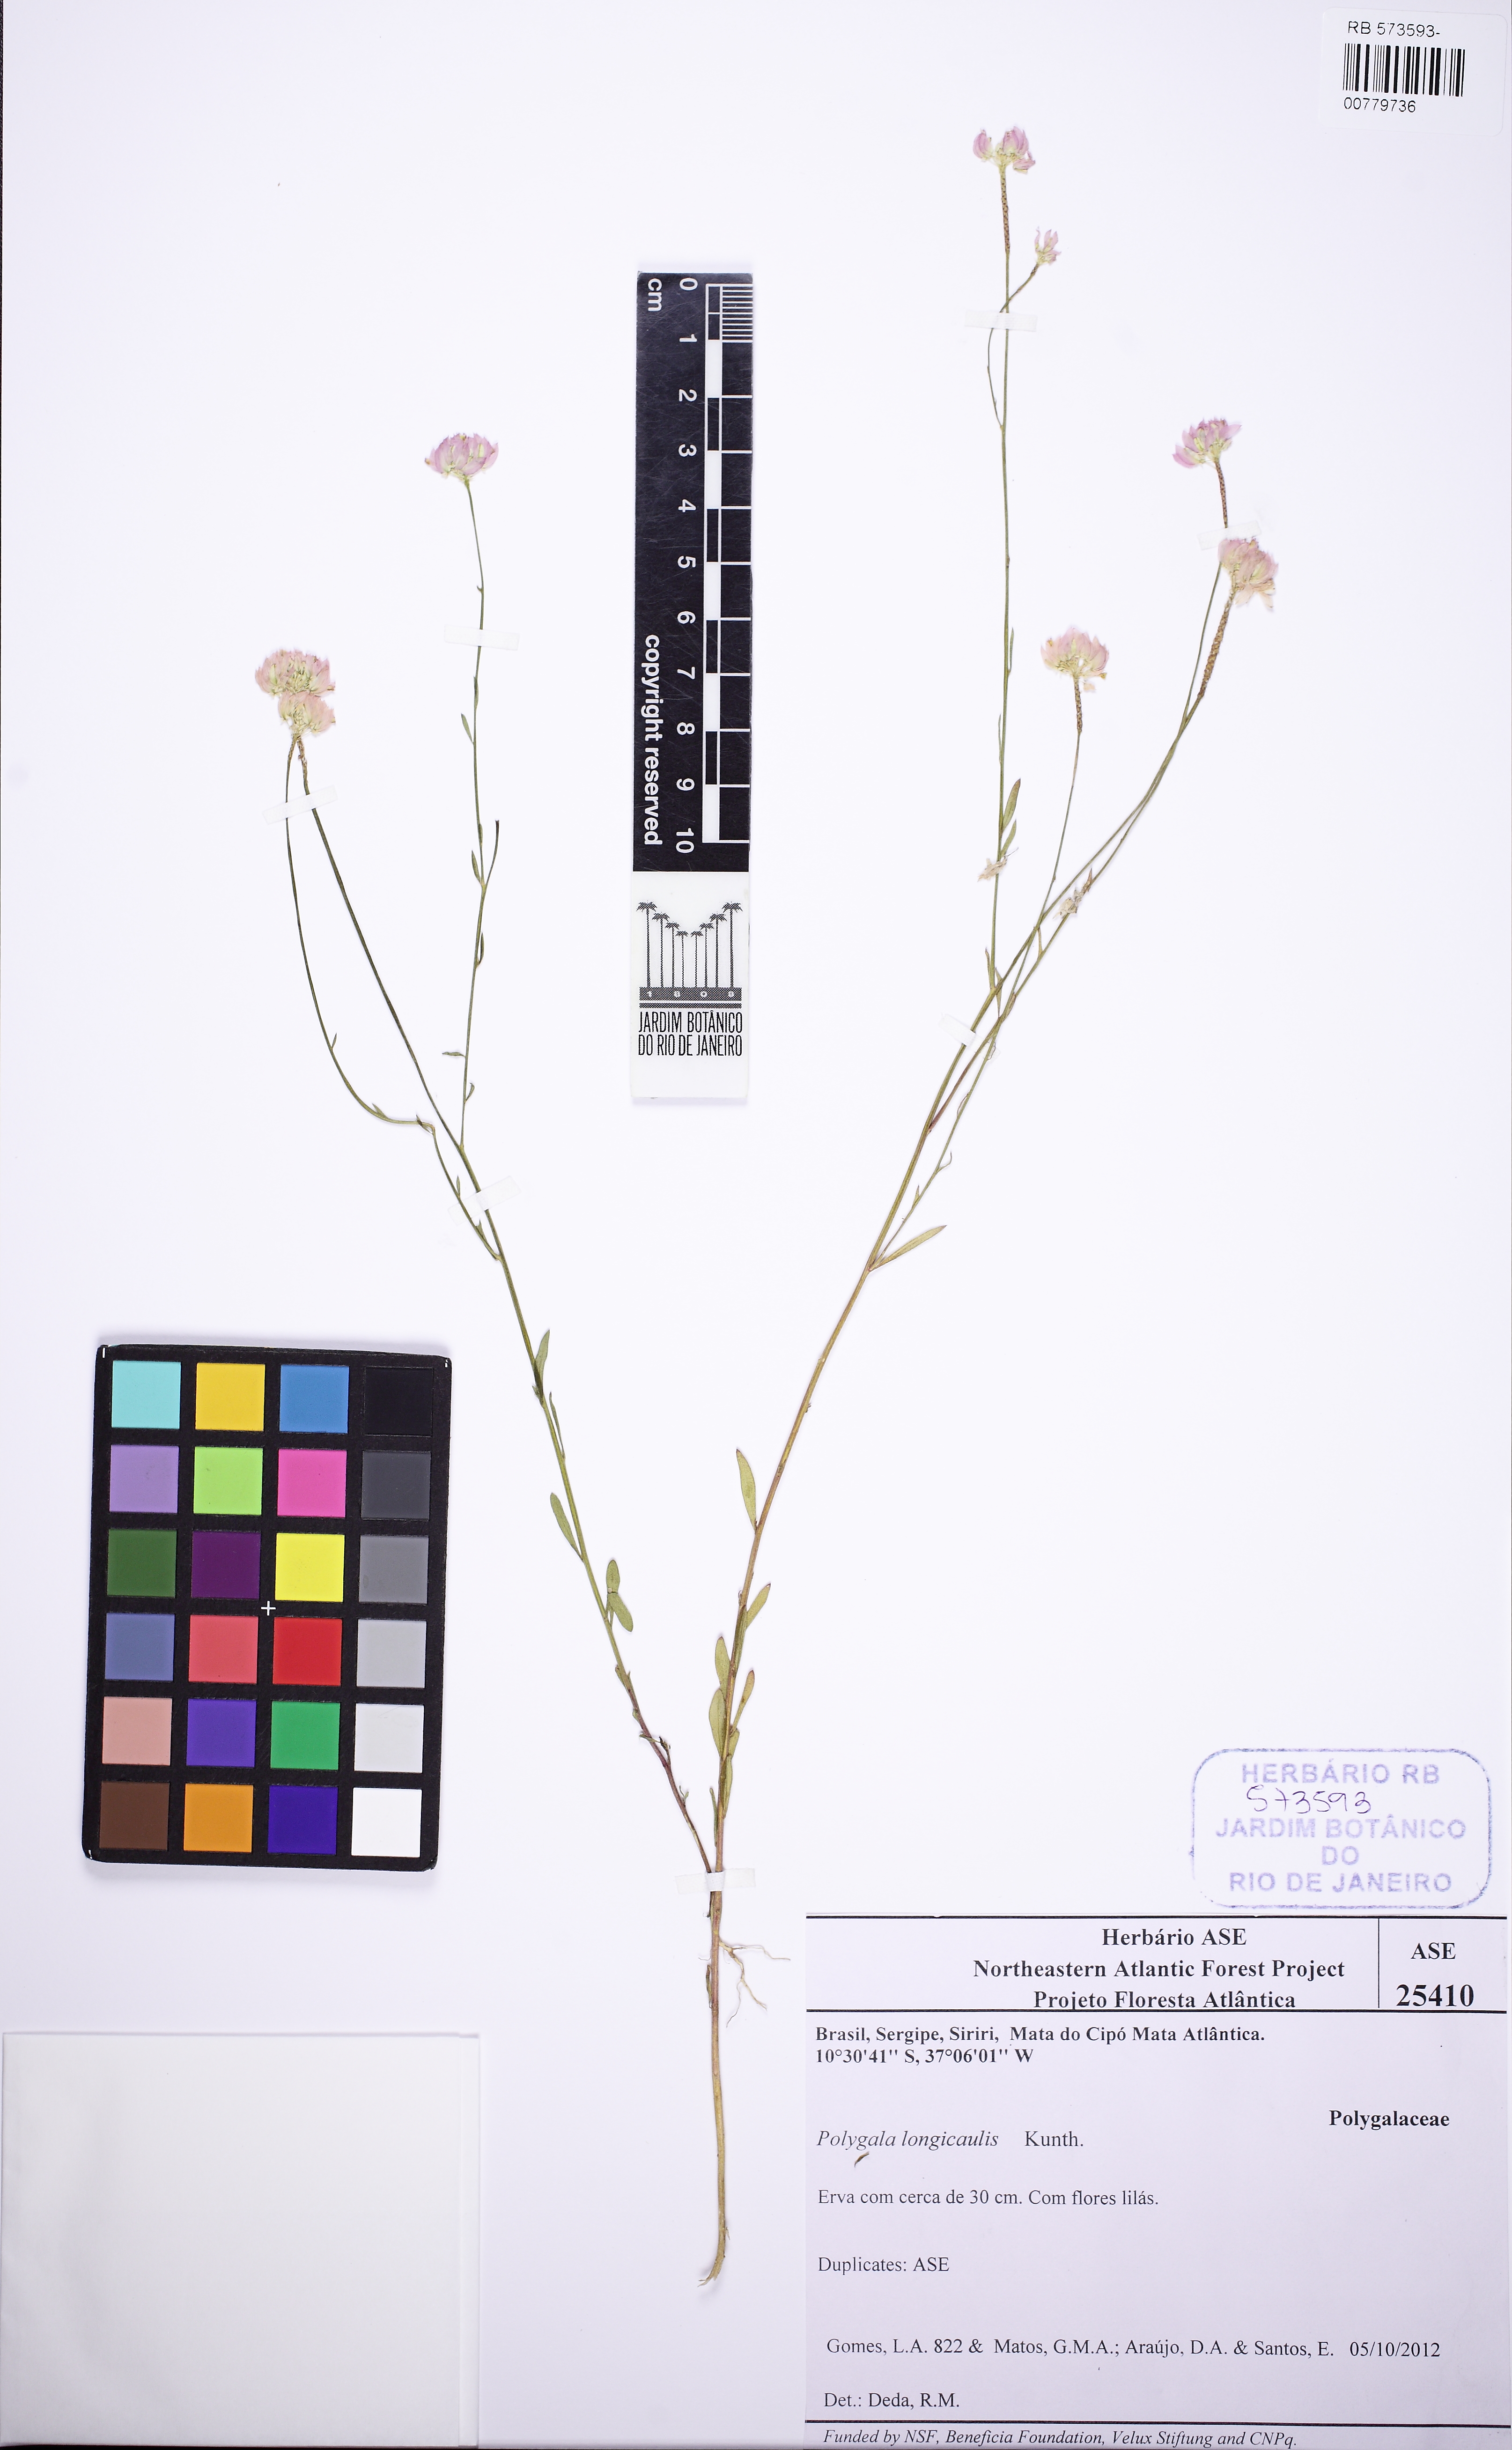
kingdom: Plantae
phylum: Tracheophyta
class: Magnoliopsida
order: Fabales
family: Polygalaceae
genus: Polygala
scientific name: Polygala longicaulis
